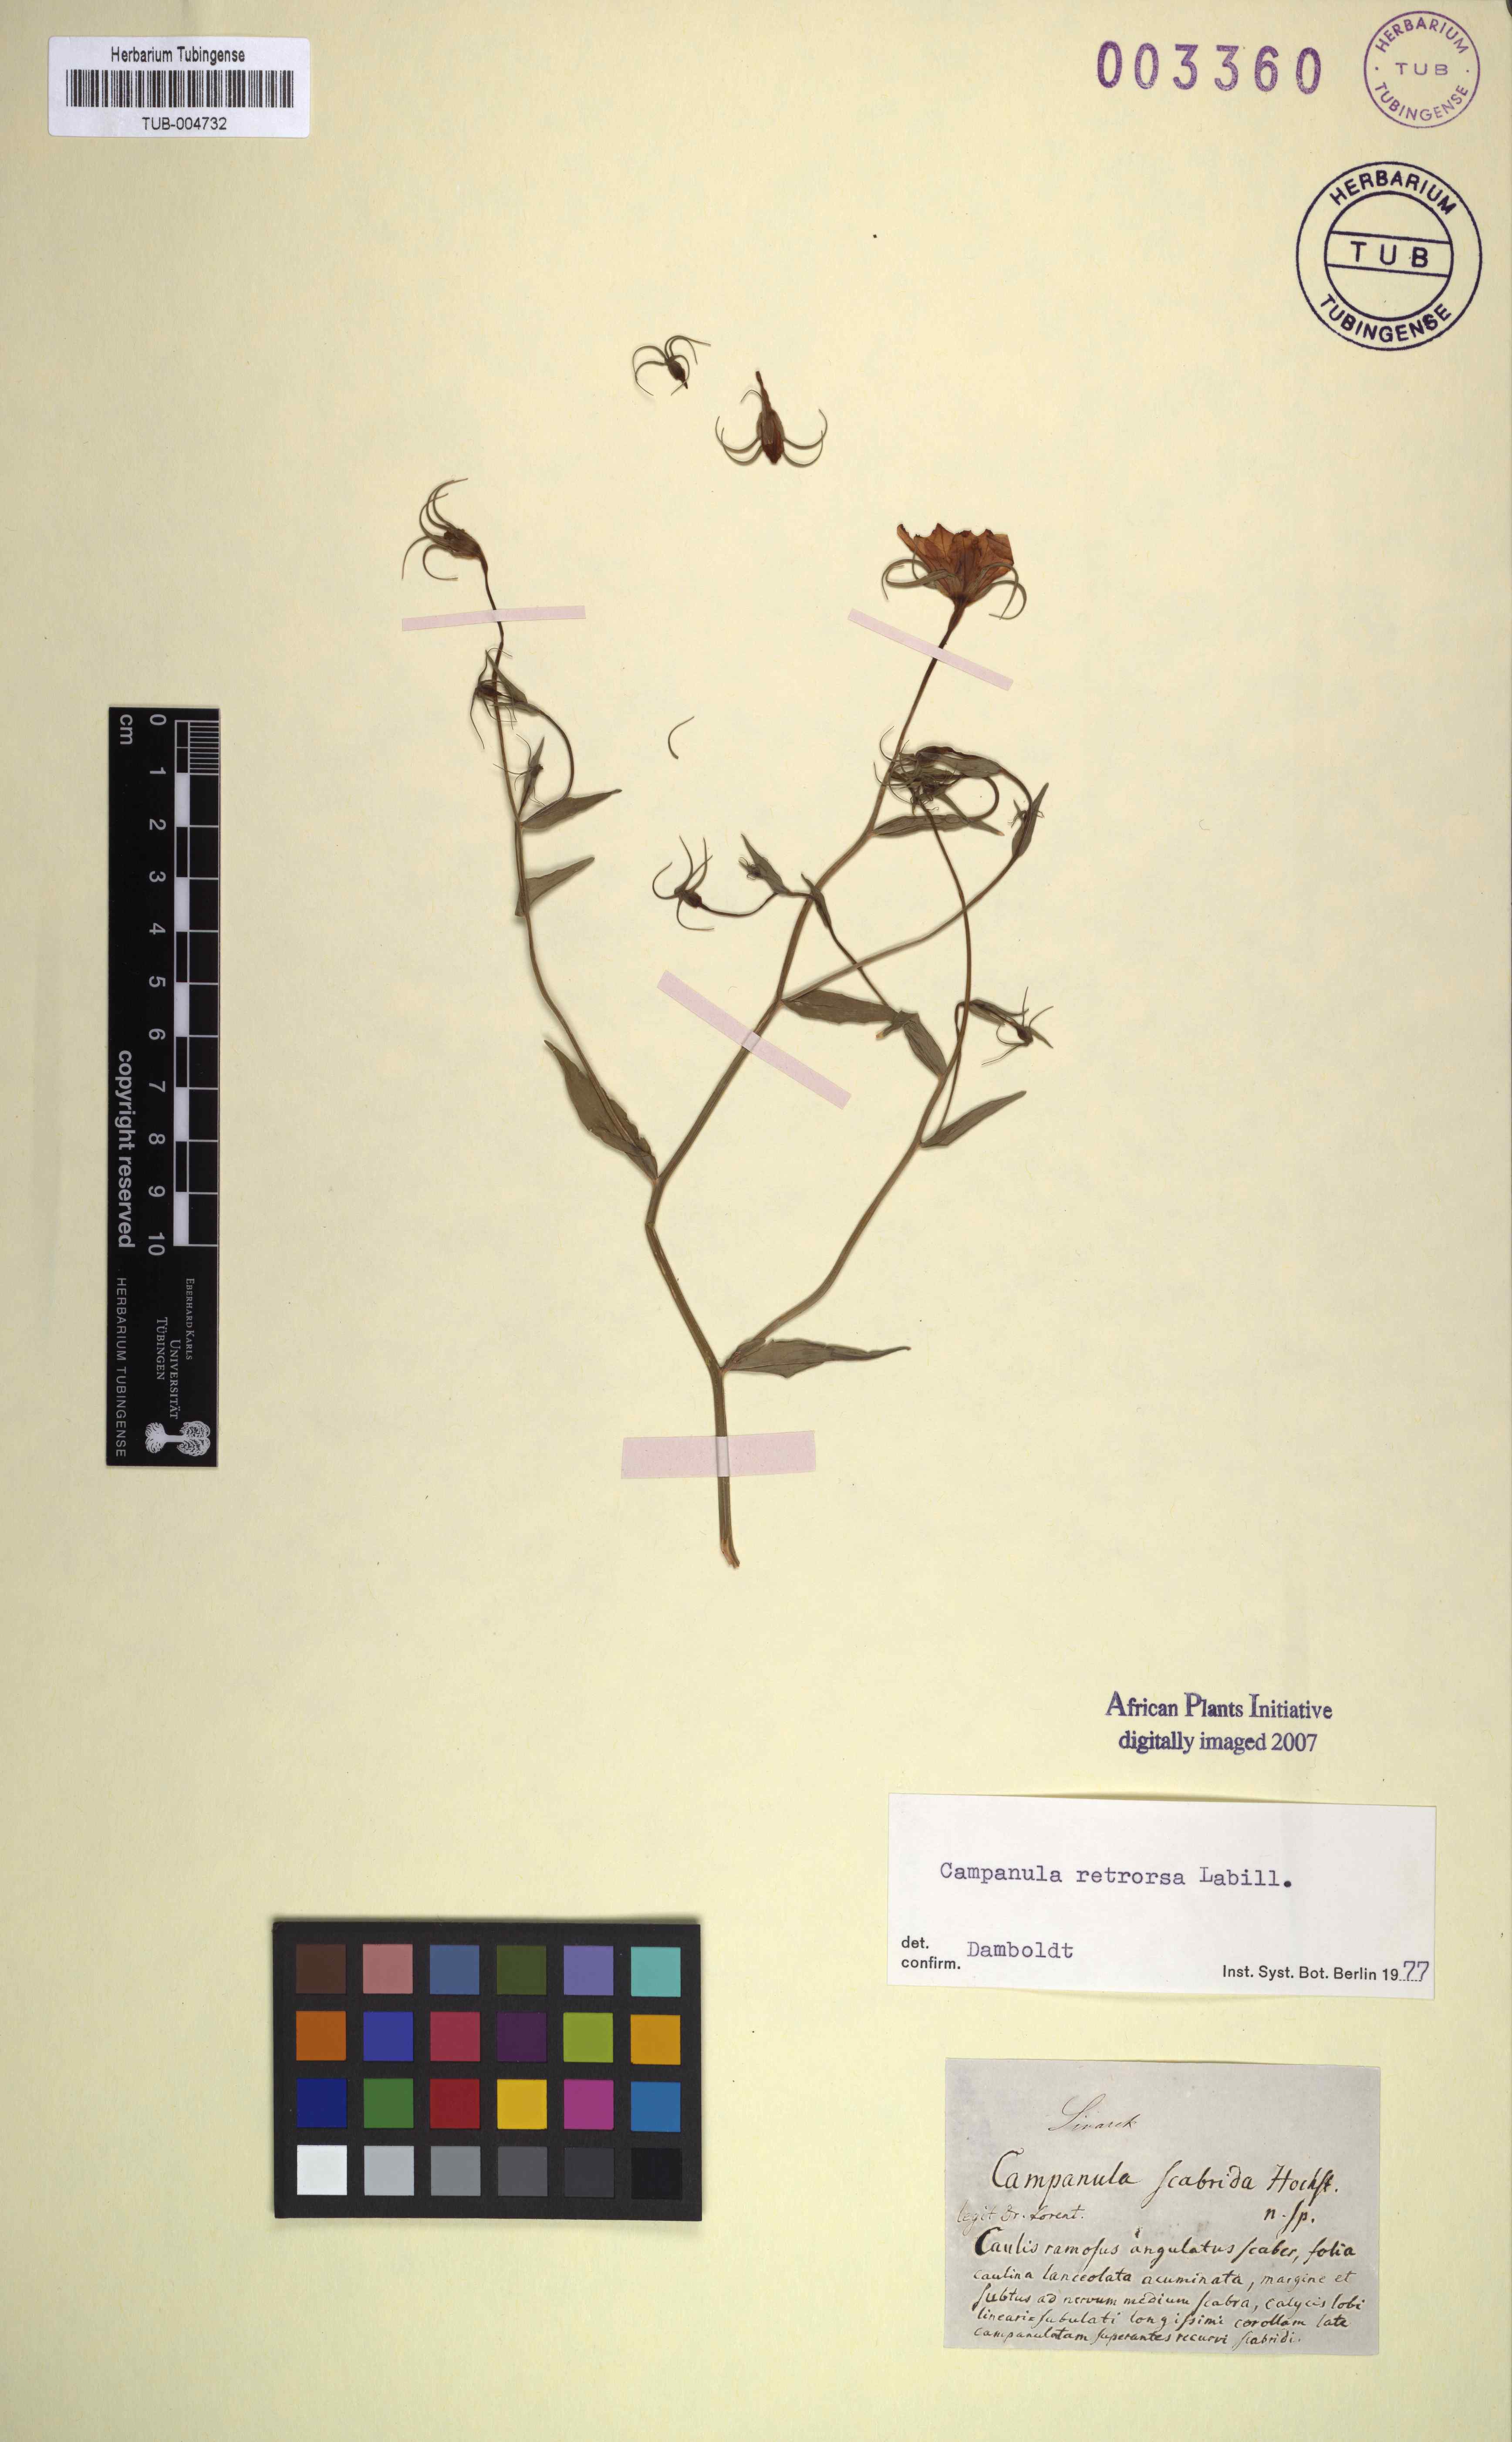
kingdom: Plantae
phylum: Tracheophyta
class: Magnoliopsida
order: Asterales
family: Campanulaceae
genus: Campanula
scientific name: Campanula retrorsa
